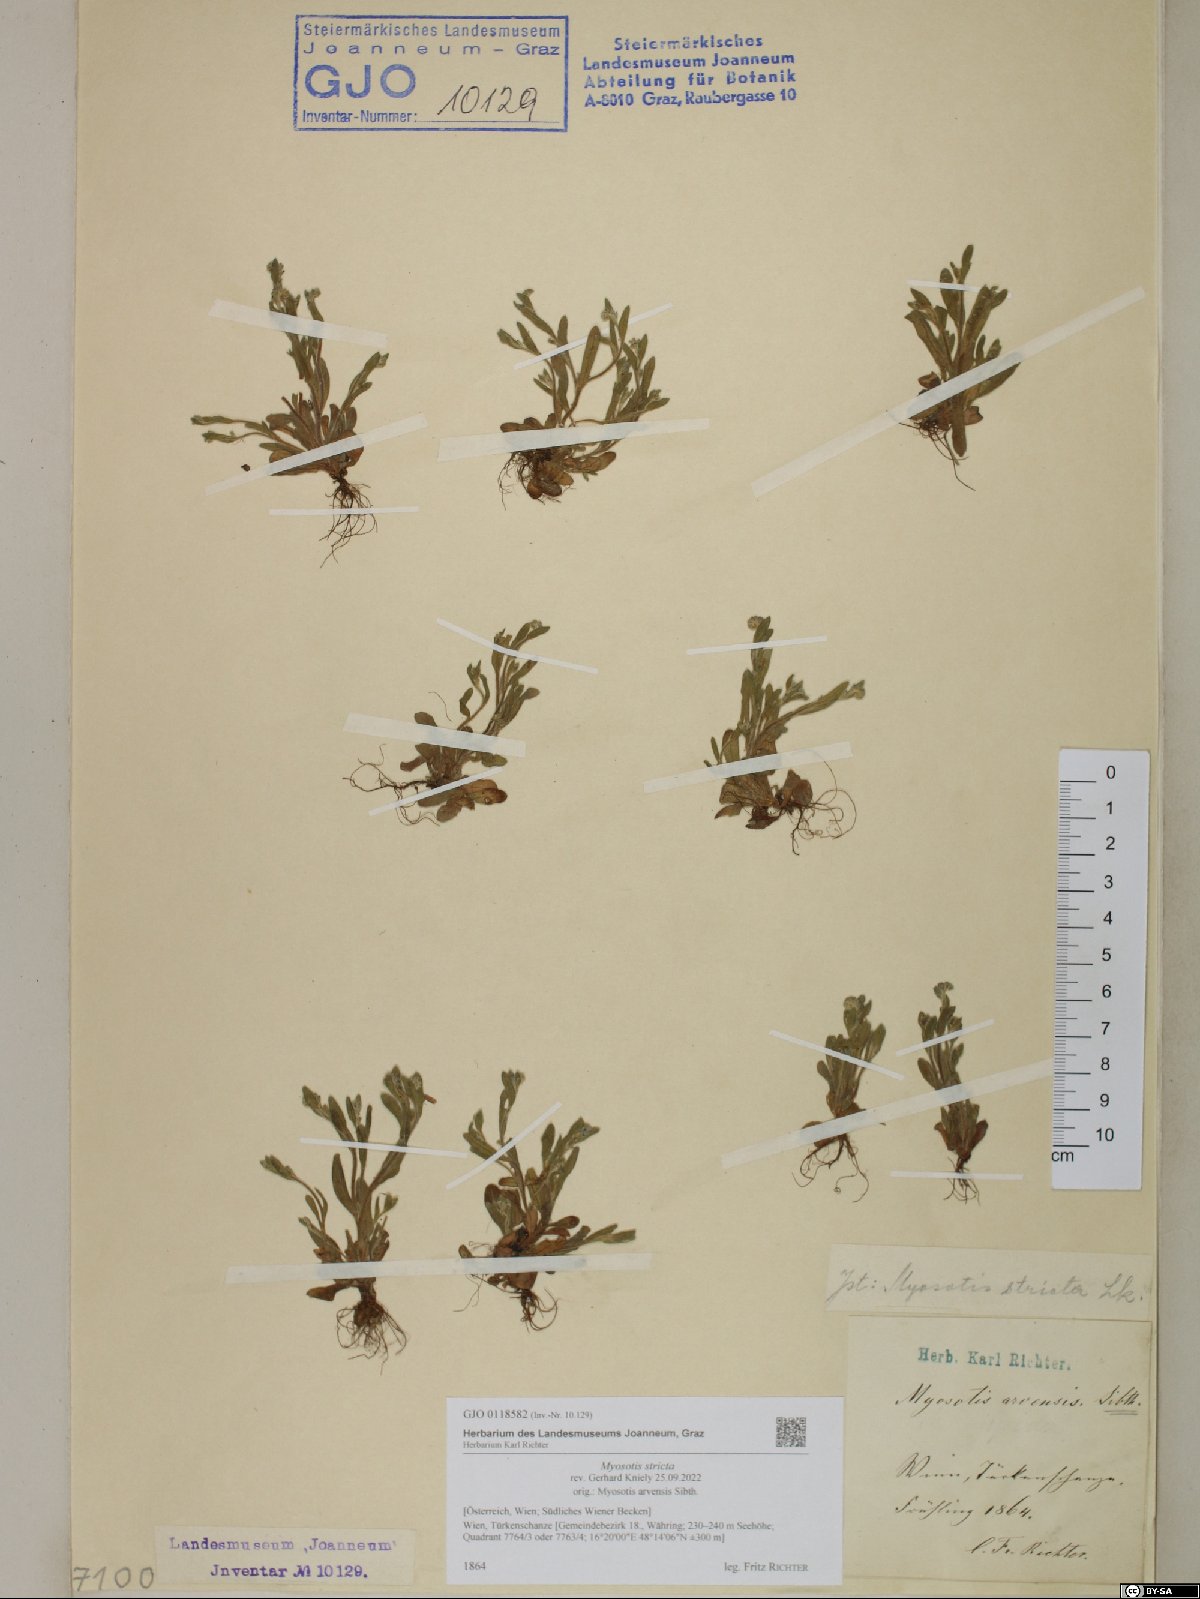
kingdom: Plantae
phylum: Tracheophyta
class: Magnoliopsida
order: Boraginales
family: Boraginaceae
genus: Myosotis
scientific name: Myosotis stricta
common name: Strict forget-me-not
